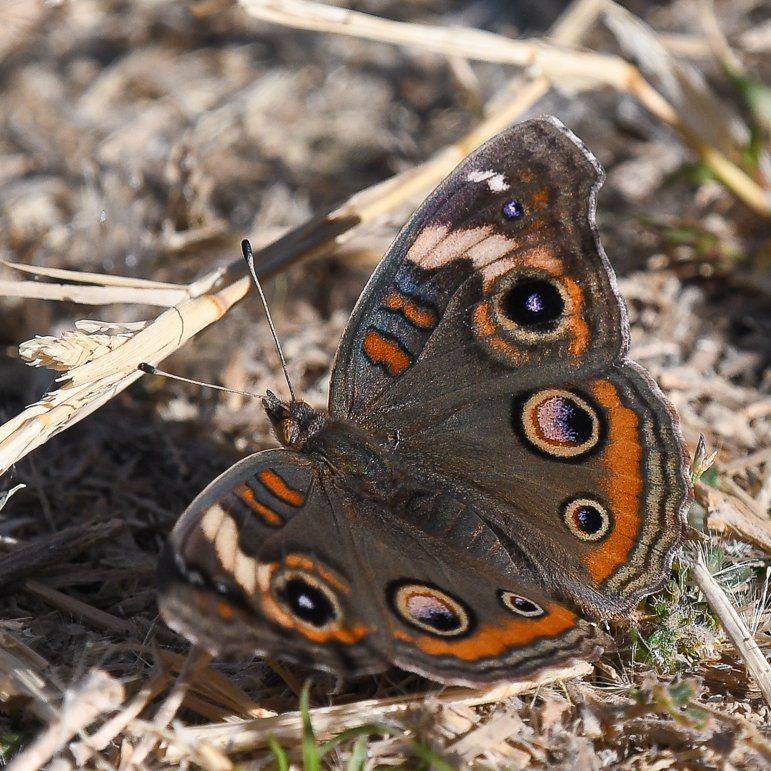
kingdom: Animalia
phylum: Arthropoda
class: Insecta
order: Lepidoptera
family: Nymphalidae
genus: Junonia
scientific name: Junonia coenia
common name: Common Buckeye
